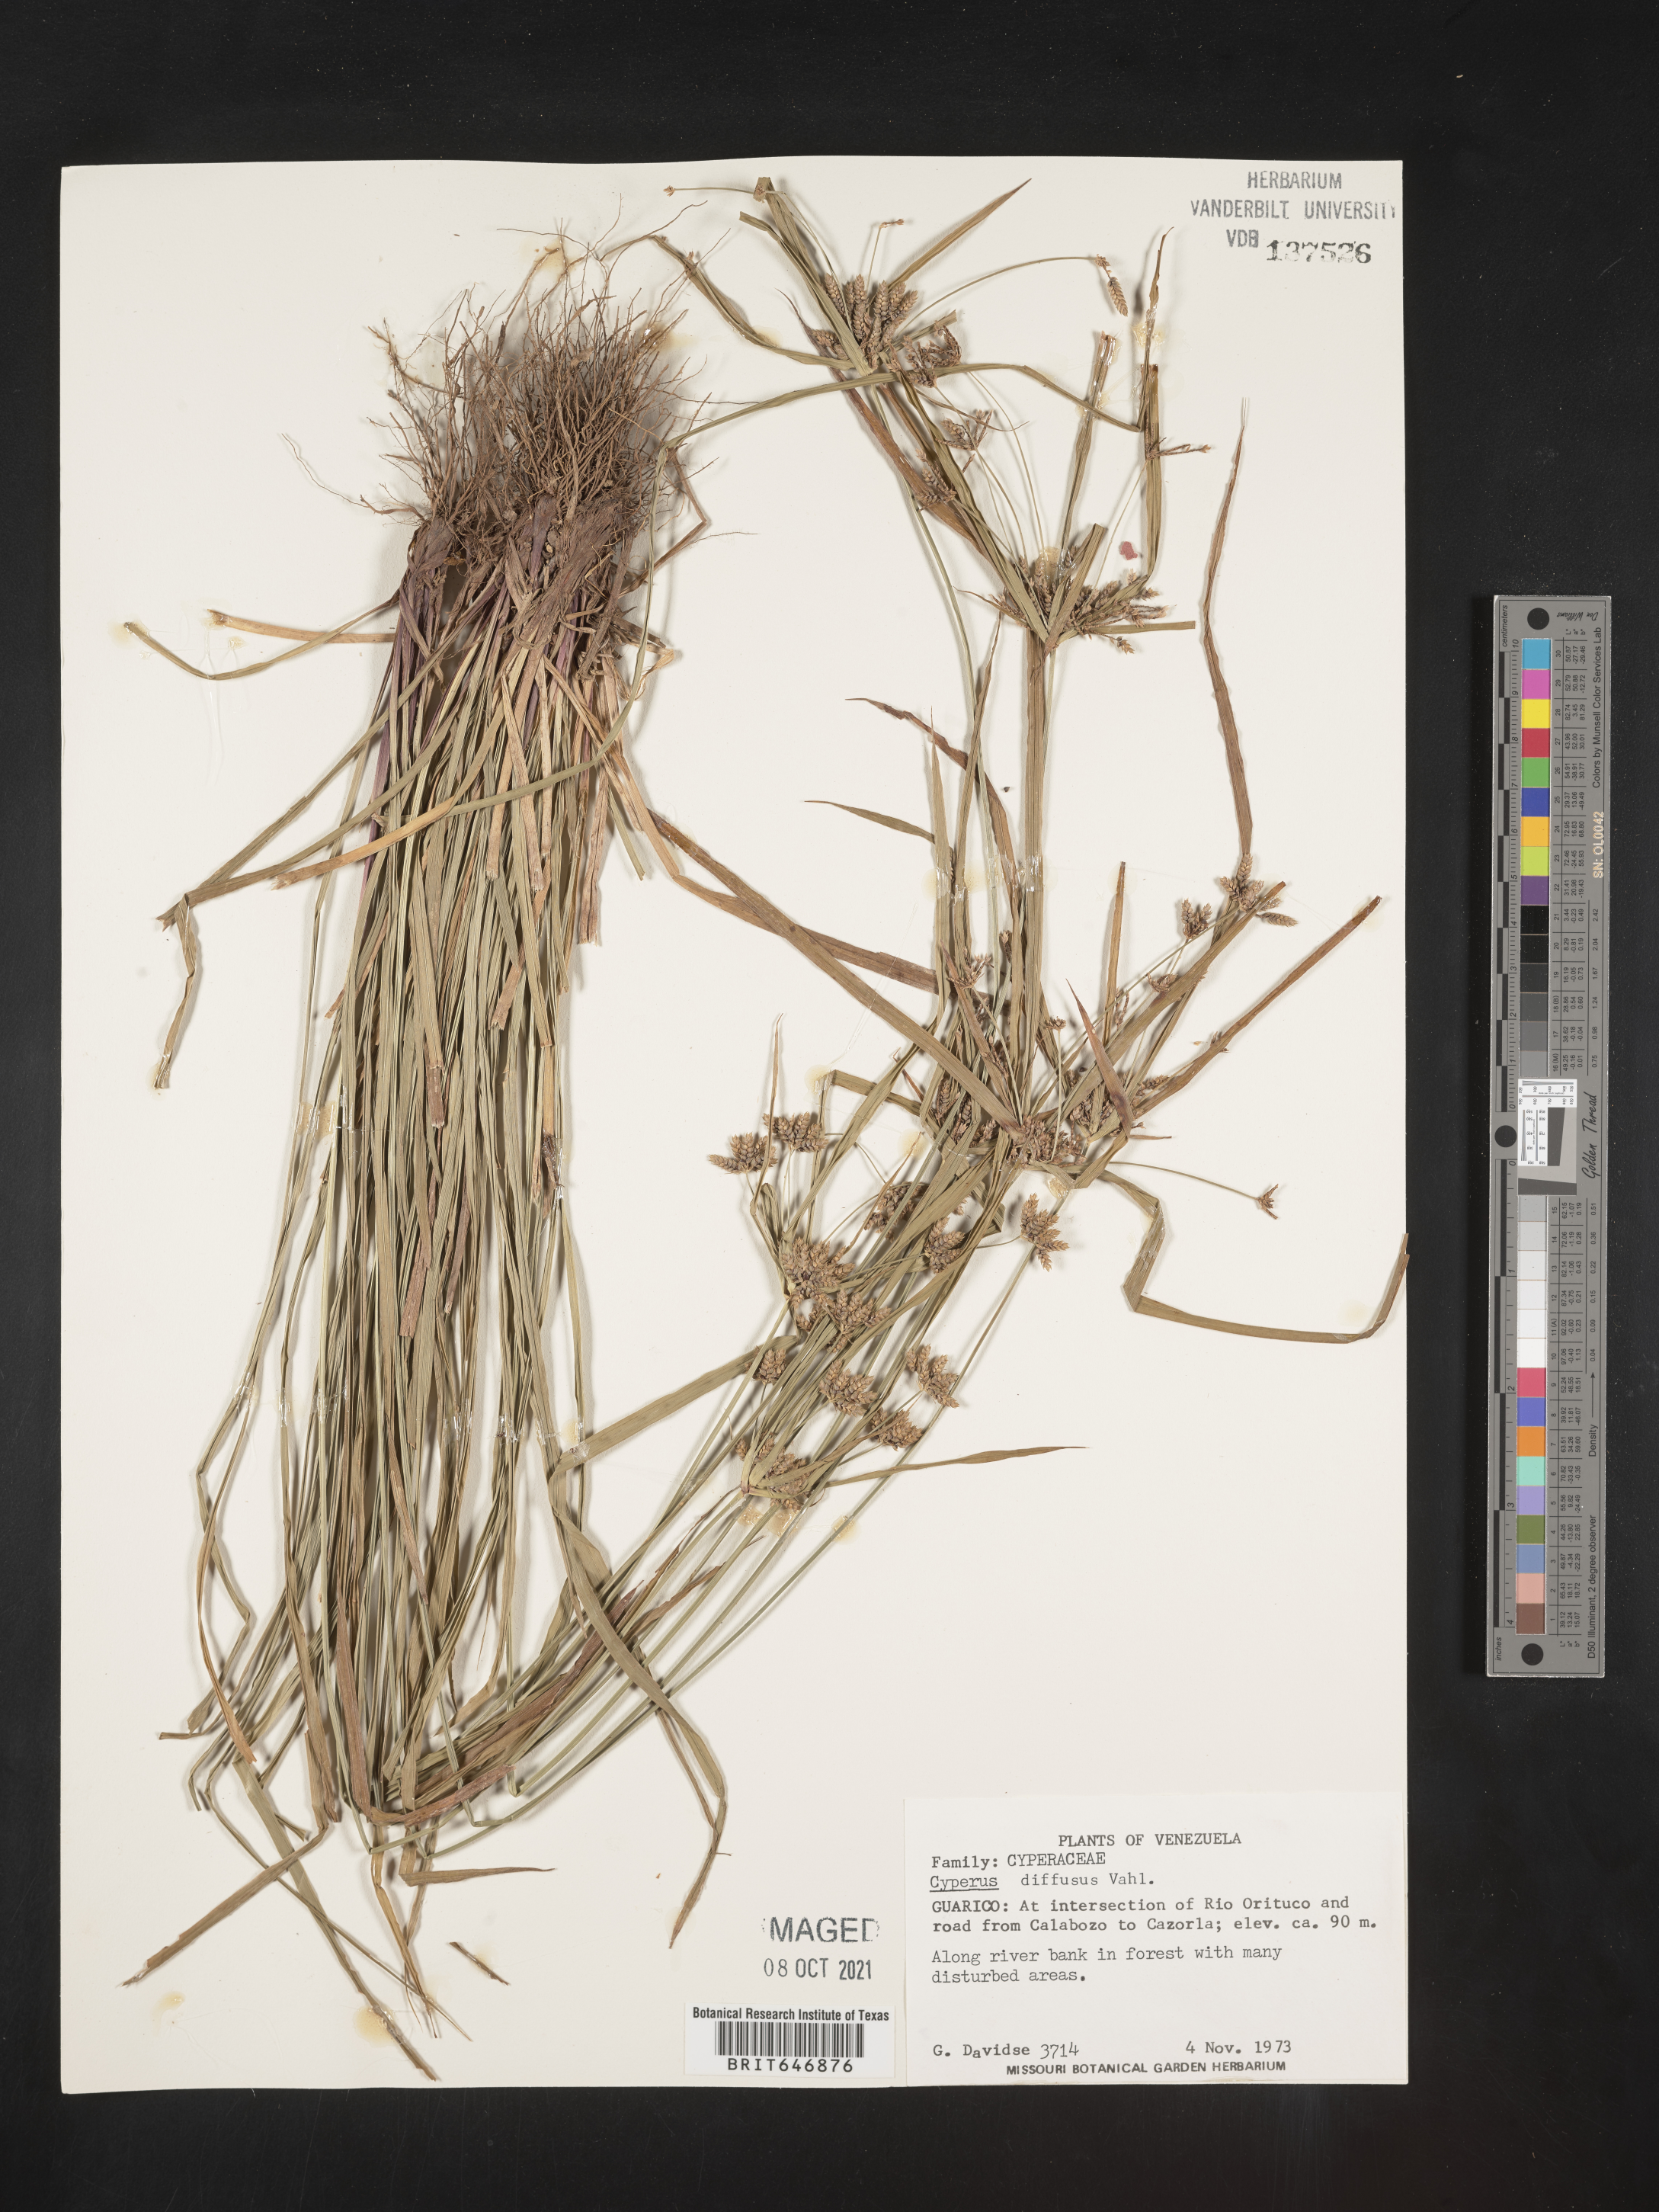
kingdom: Plantae
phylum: Tracheophyta
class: Liliopsida
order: Poales
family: Cyperaceae
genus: Cyperus
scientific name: Cyperus diffusus
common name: Dwarf umbrella grass
